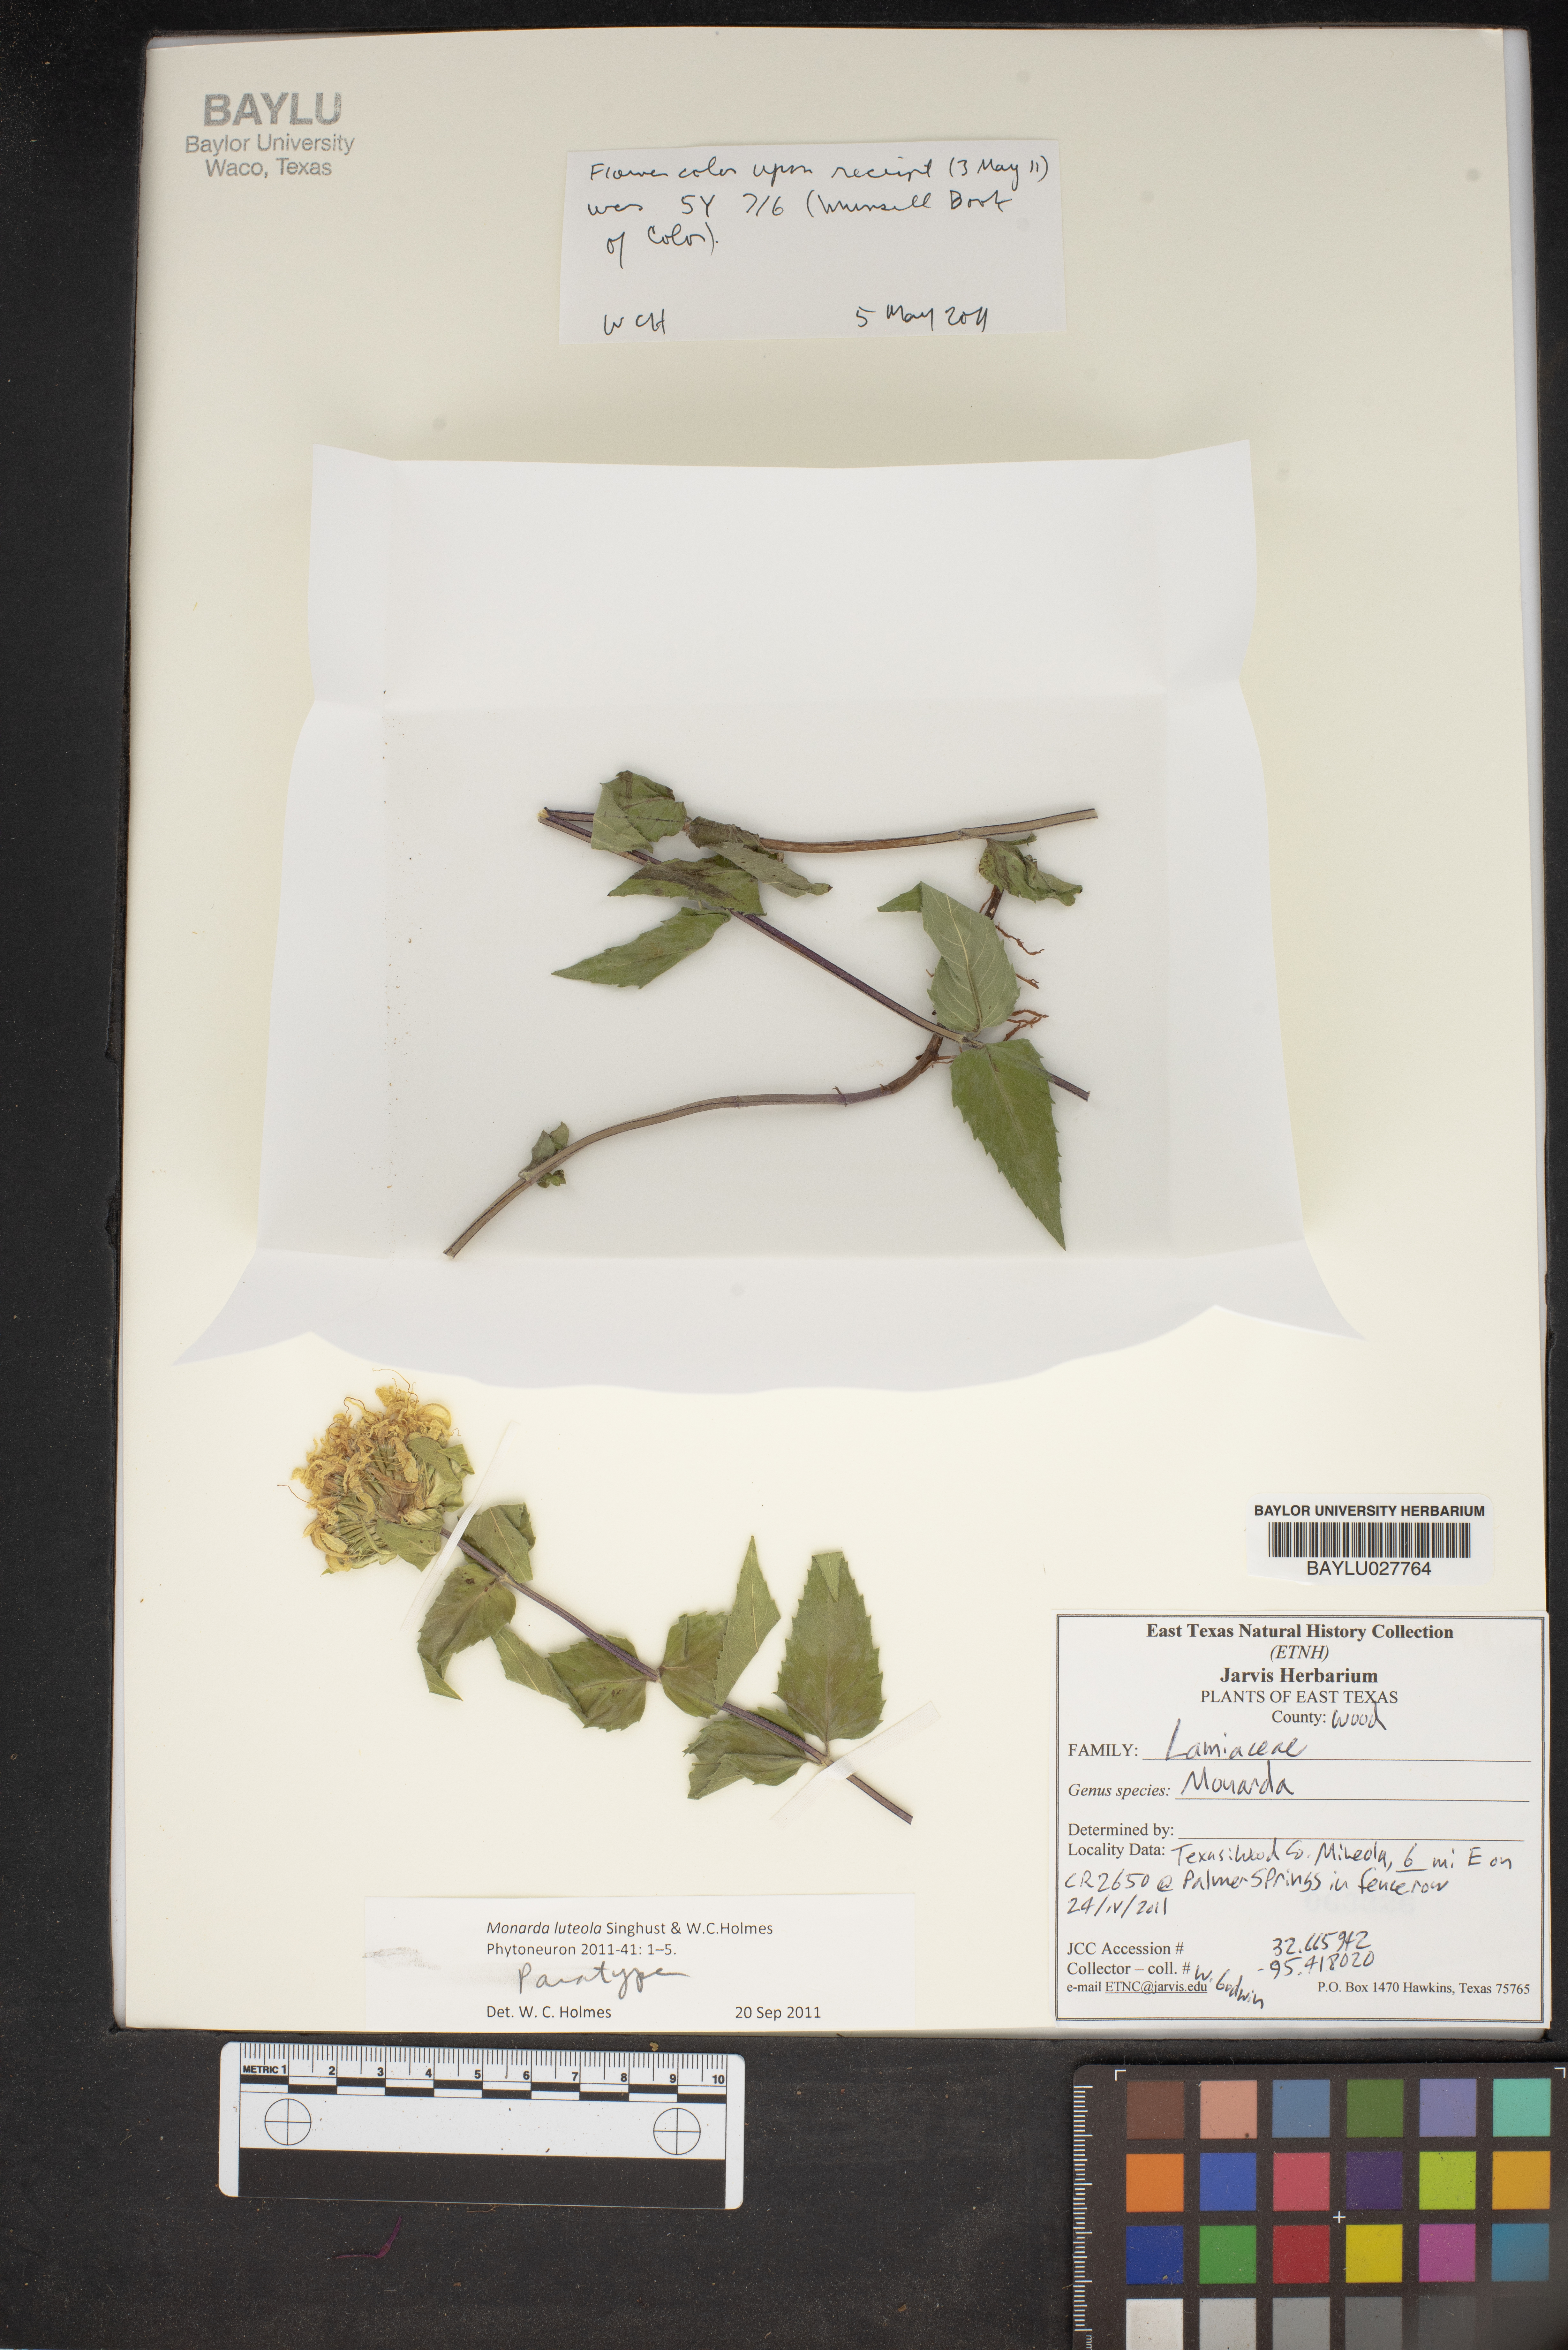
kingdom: Plantae
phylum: Tracheophyta
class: Magnoliopsida
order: Lamiales
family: Lamiaceae
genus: Monarda
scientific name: Monarda luteola
